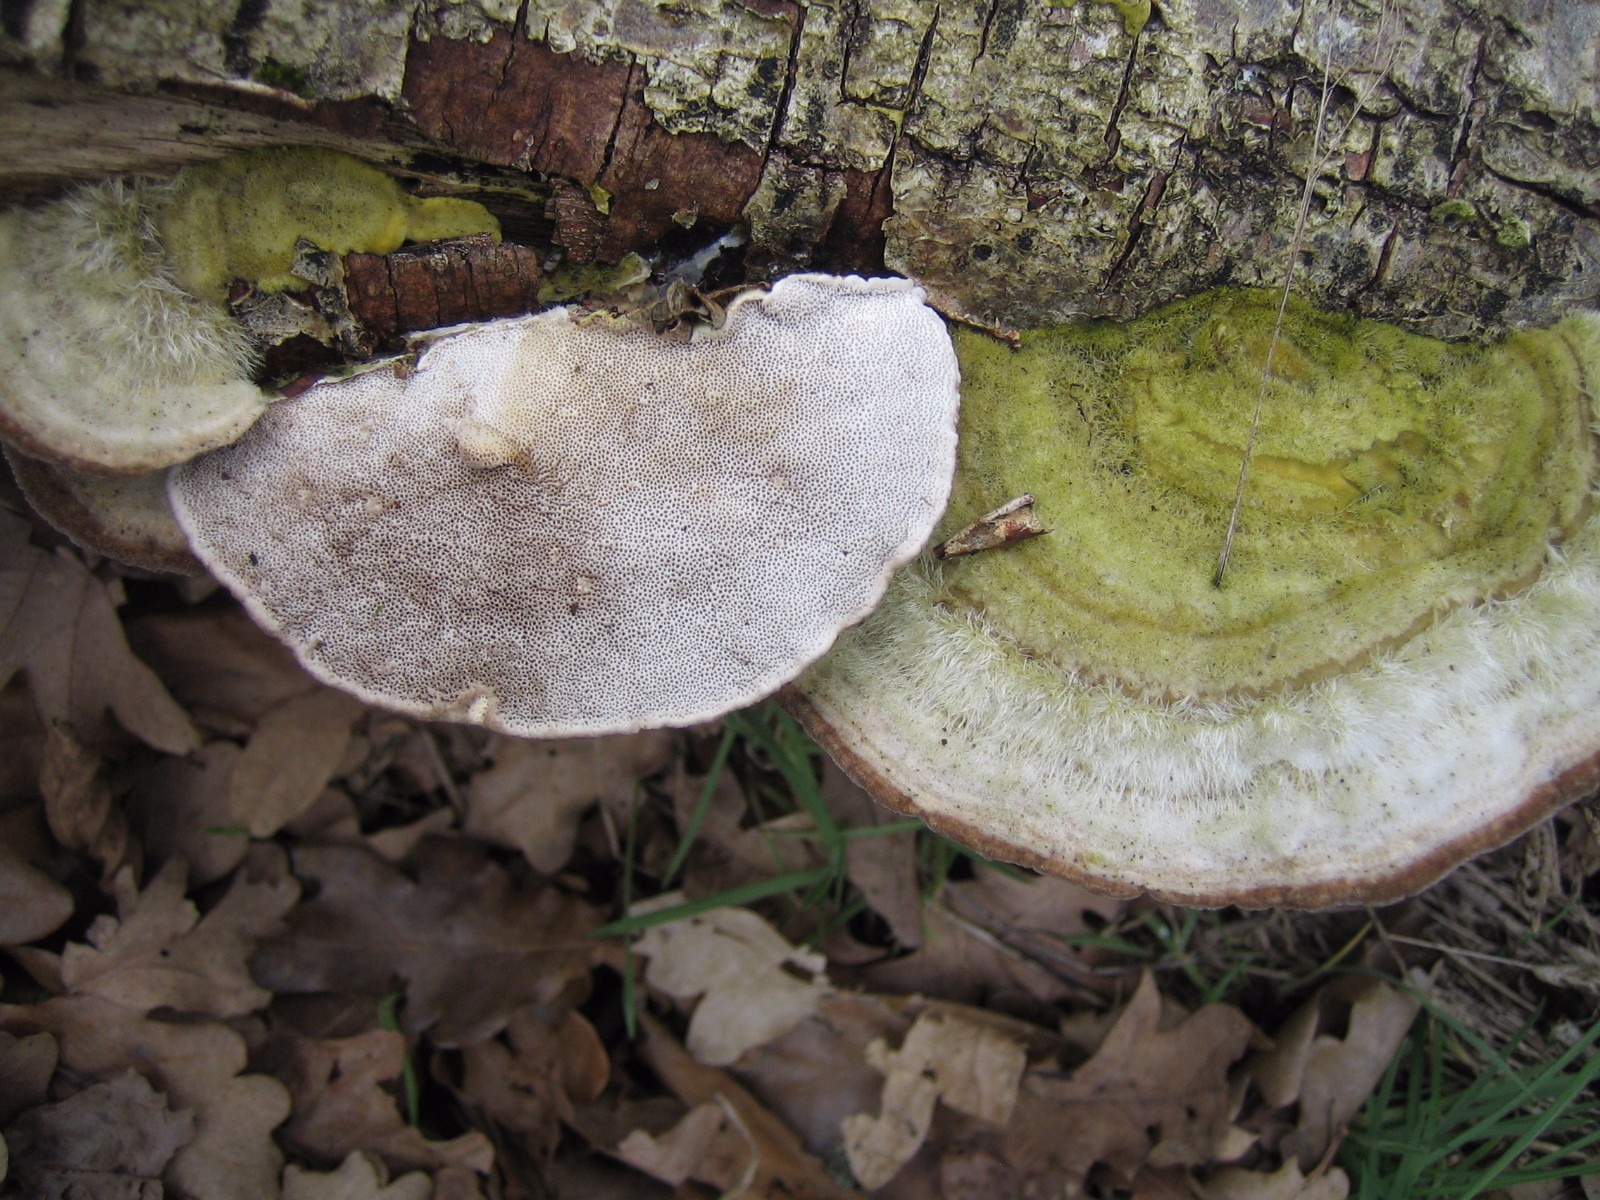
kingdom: Fungi
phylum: Basidiomycota
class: Agaricomycetes
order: Polyporales
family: Polyporaceae
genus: Trametes
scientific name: Trametes hirsuta
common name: håret læderporesvamp
